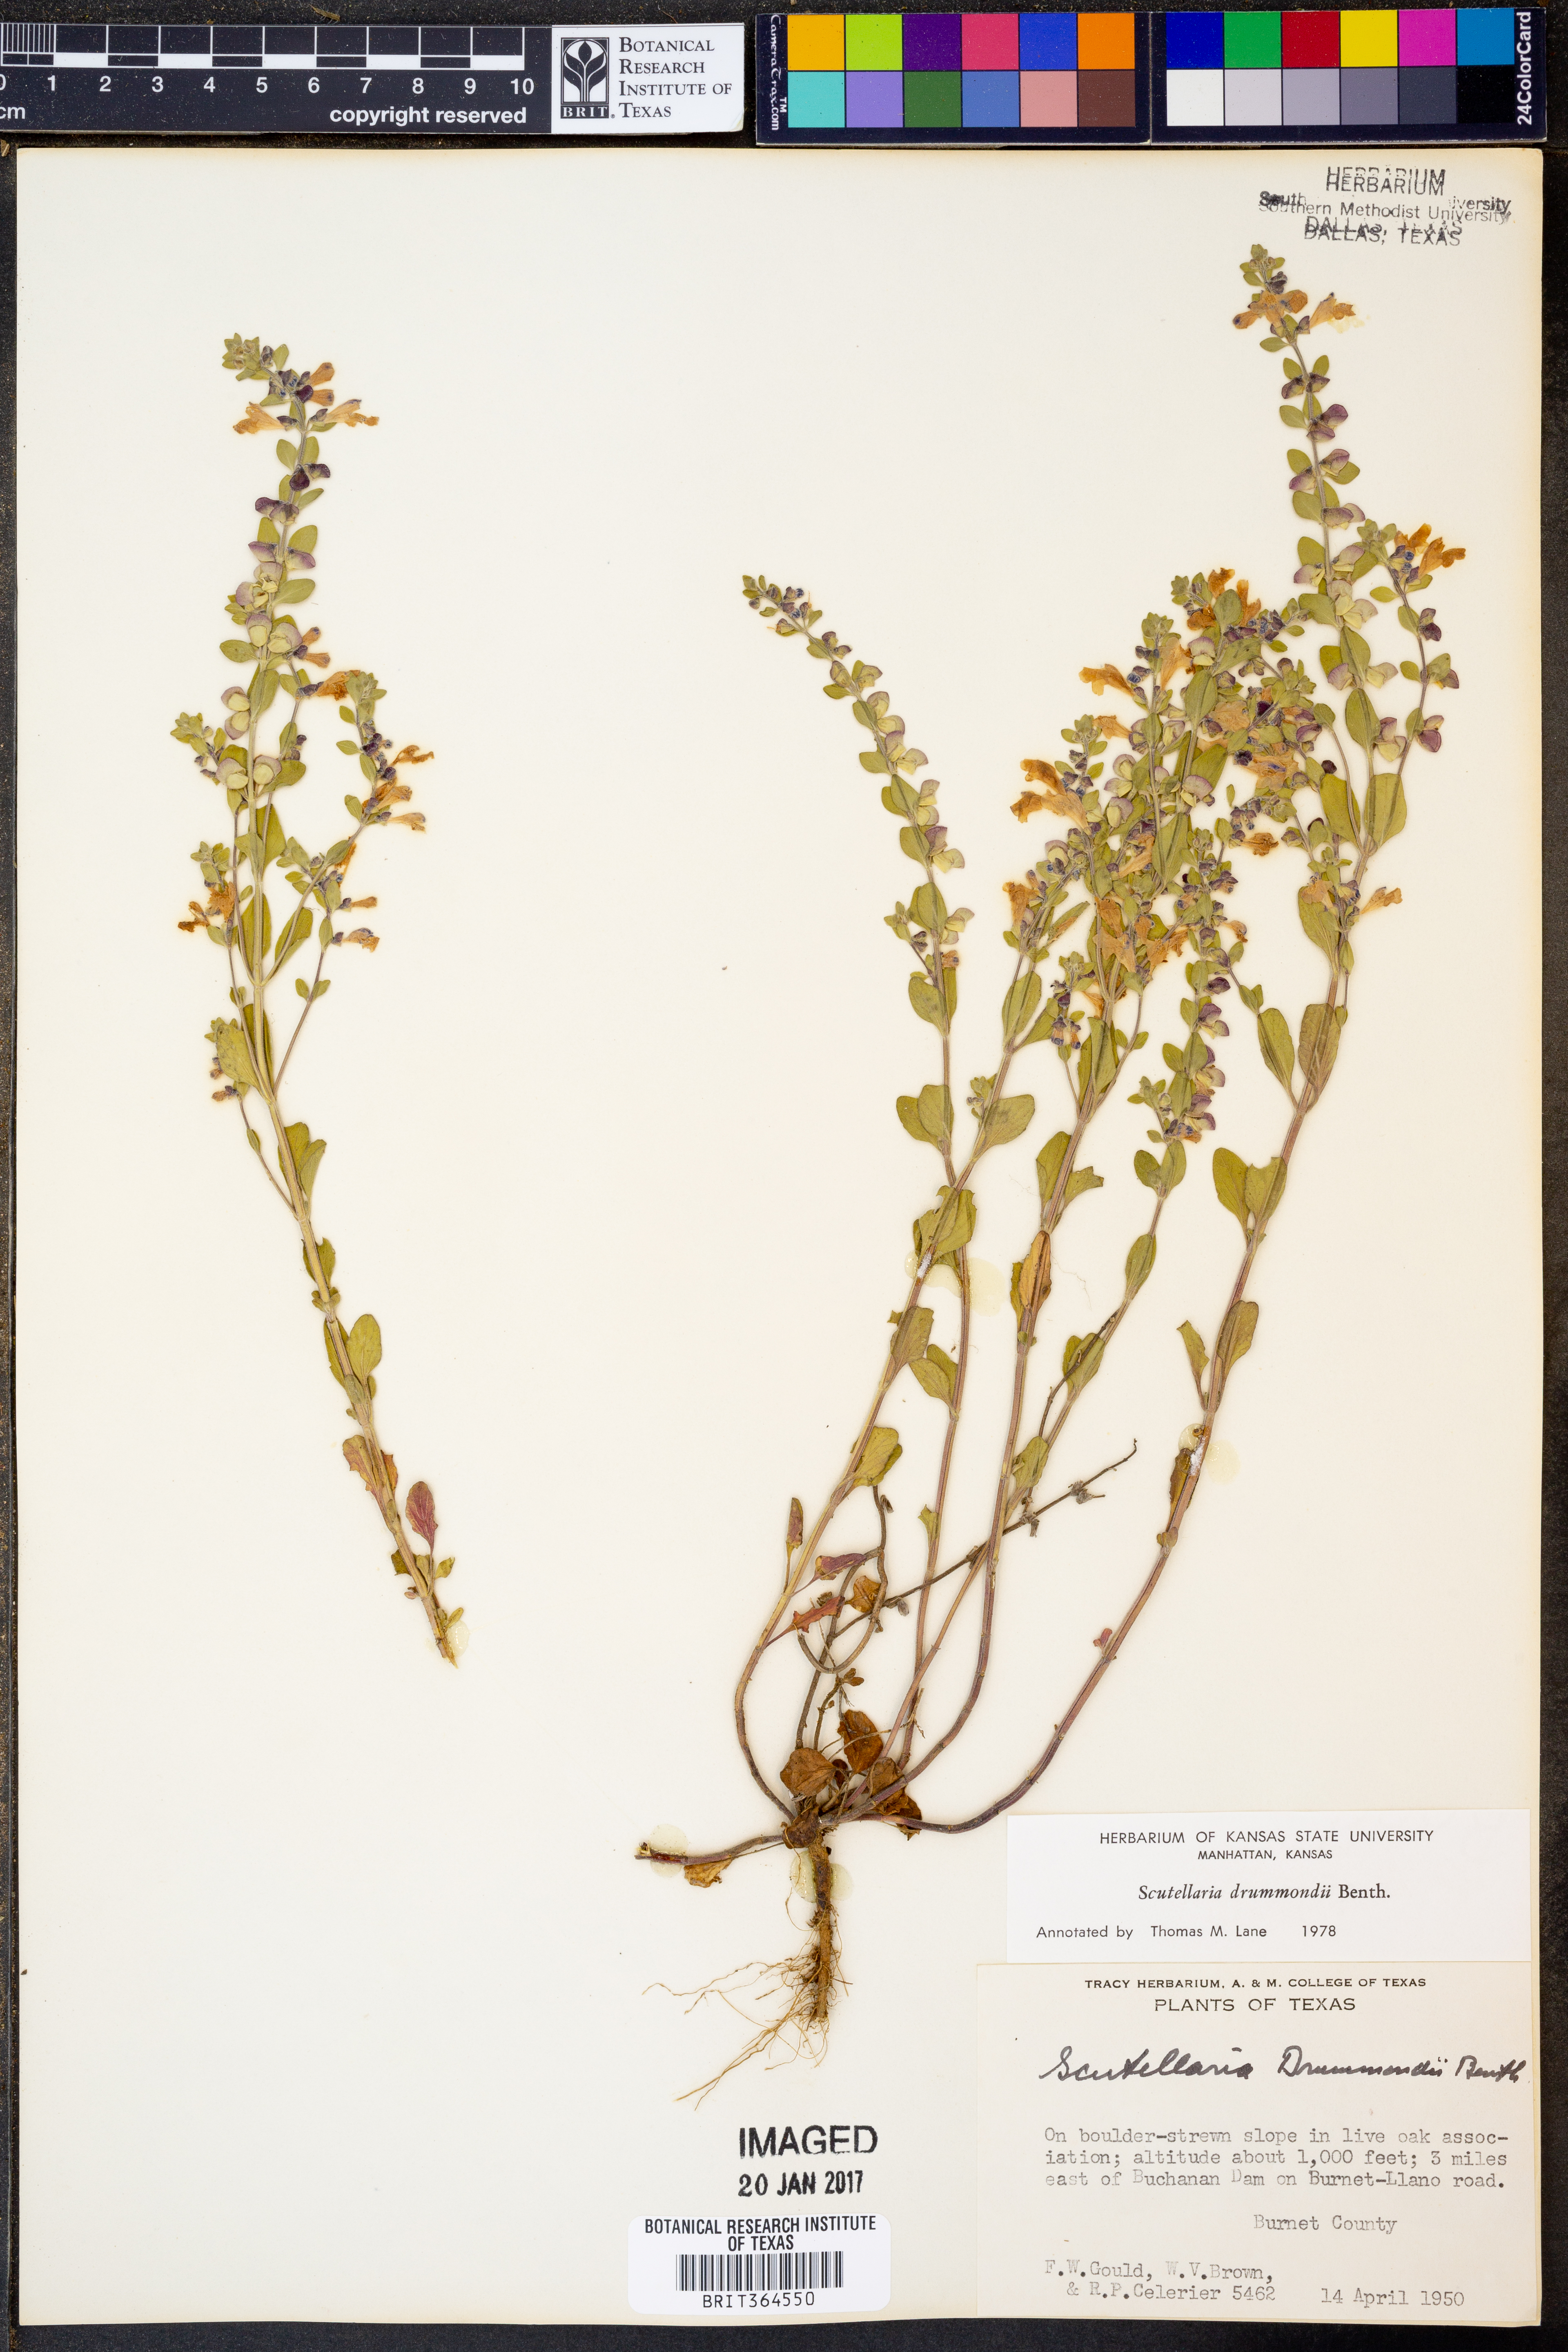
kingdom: Plantae
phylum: Tracheophyta
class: Magnoliopsida
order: Lamiales
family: Lamiaceae
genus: Scutellaria
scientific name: Scutellaria drummondii
